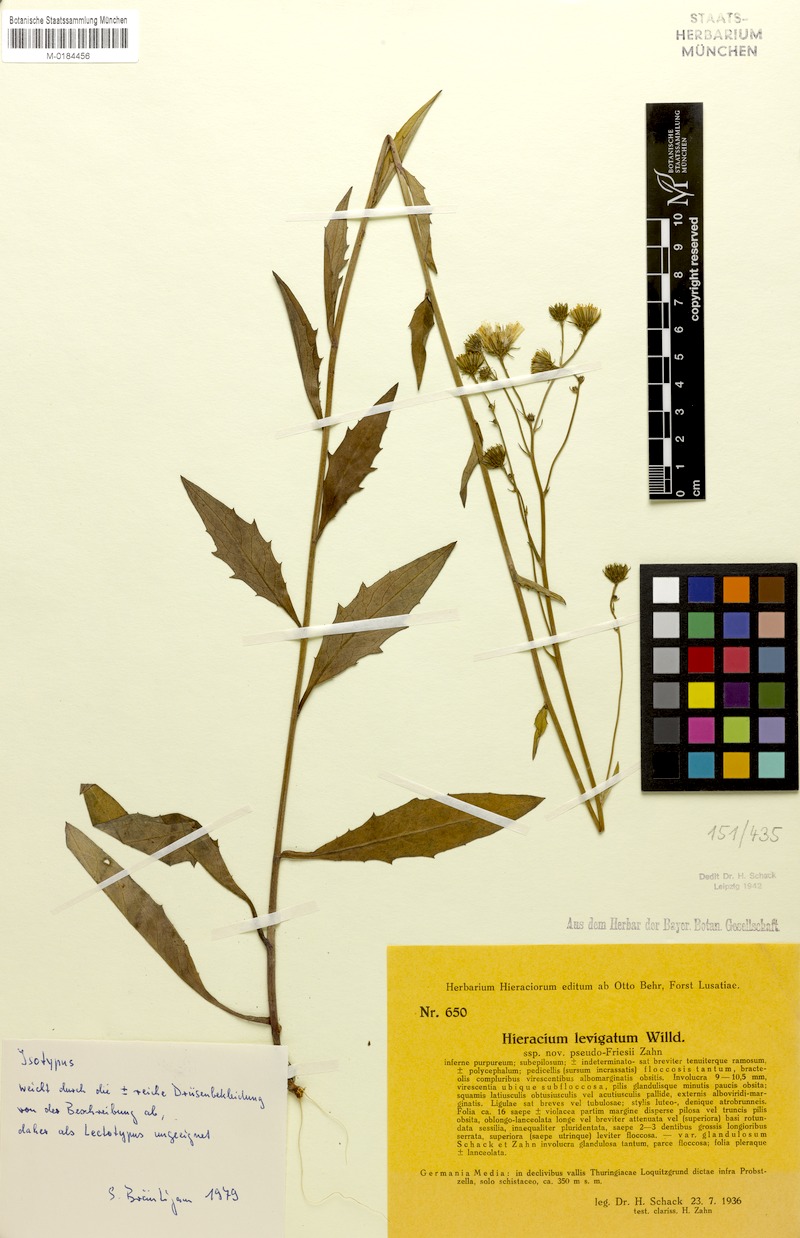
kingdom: Plantae
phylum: Tracheophyta
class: Magnoliopsida
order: Asterales
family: Asteraceae
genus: Hieracium
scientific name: Hieracium laevigatum
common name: Smooth hawkweed
